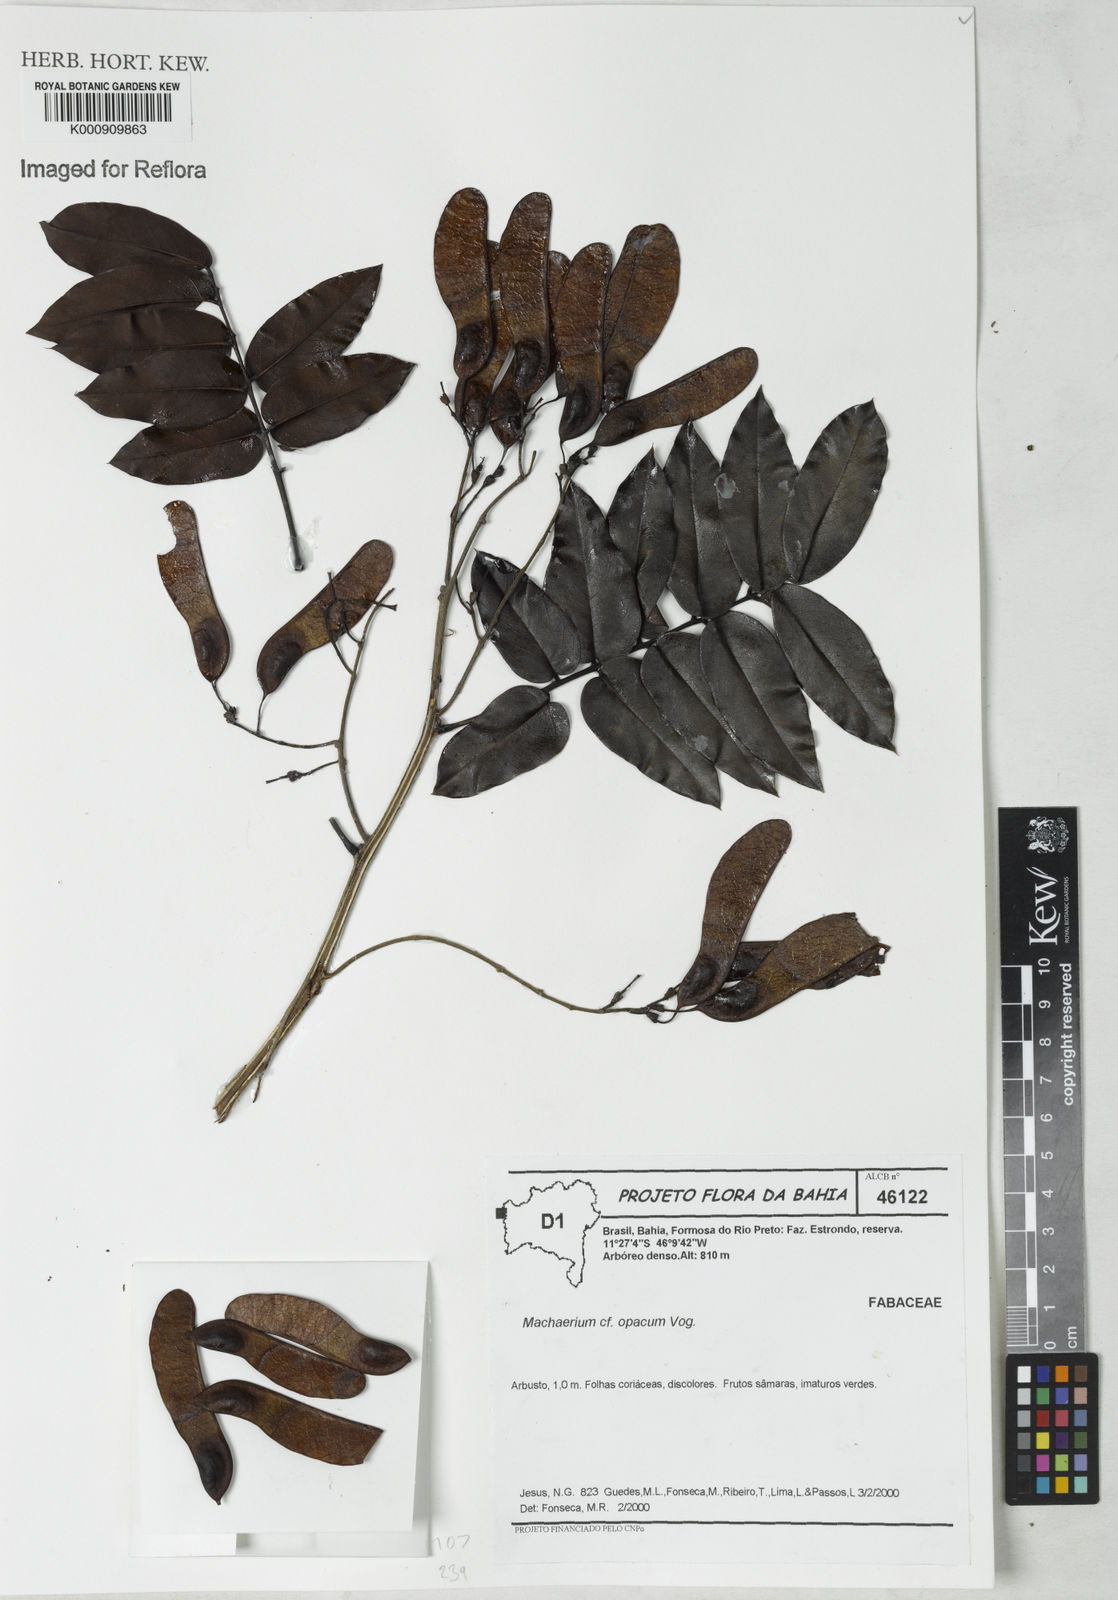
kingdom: Plantae
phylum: Tracheophyta
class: Magnoliopsida
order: Fabales
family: Fabaceae
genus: Machaerium
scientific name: Machaerium opacum
